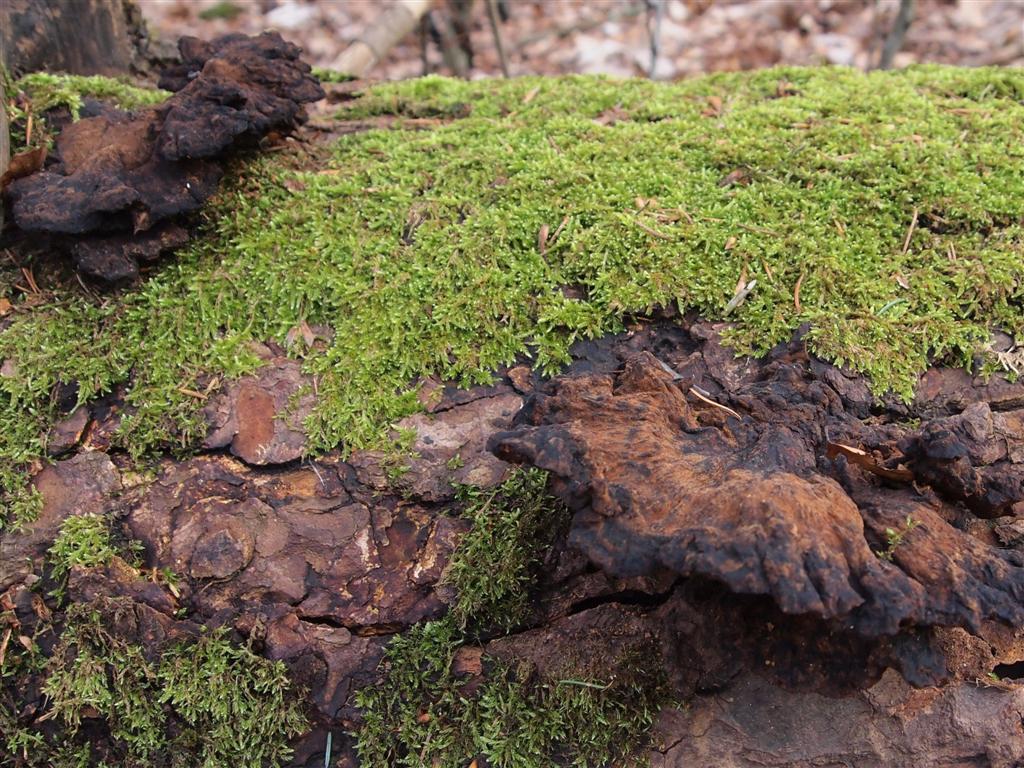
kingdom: Fungi
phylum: Basidiomycota
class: Agaricomycetes
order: Polyporales
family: Ischnodermataceae
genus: Ischnoderma
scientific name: Ischnoderma benzoinum
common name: gran-tjæreporesvamp
